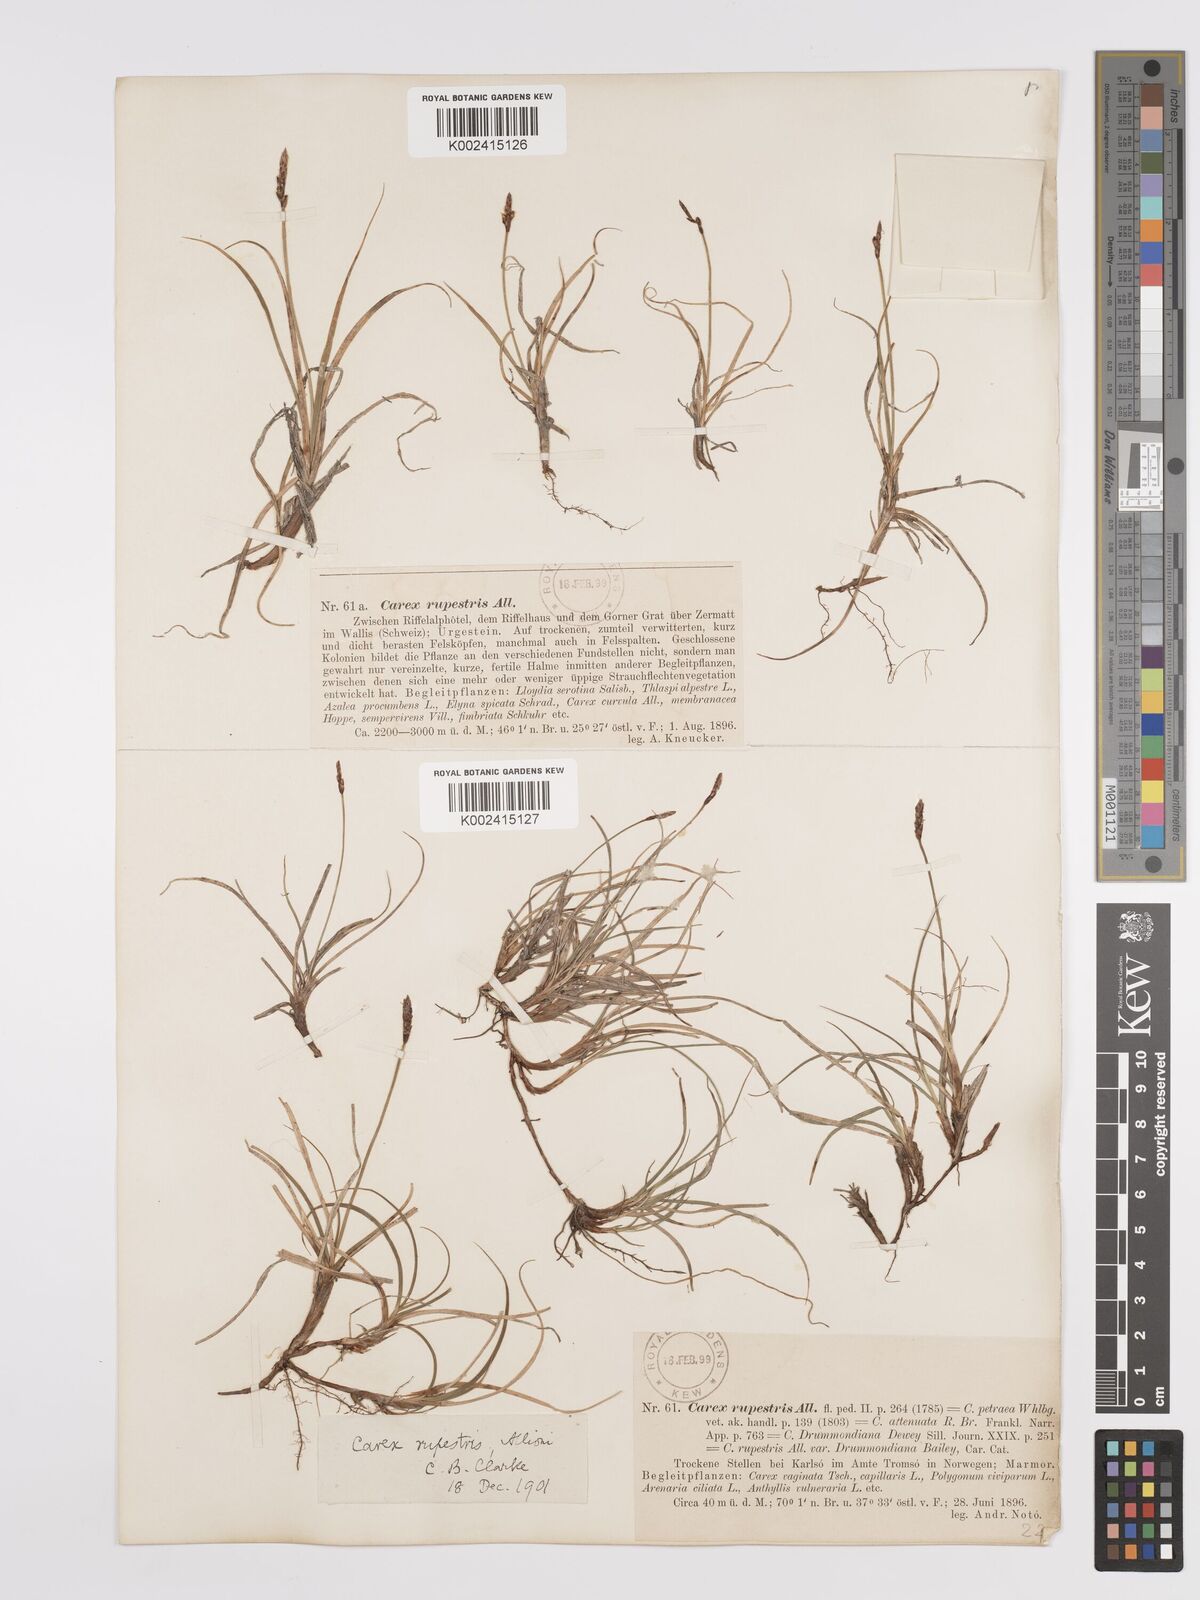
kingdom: Plantae
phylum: Tracheophyta
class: Liliopsida
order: Poales
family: Cyperaceae
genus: Carex
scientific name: Carex rupestris
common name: Rock sedge
